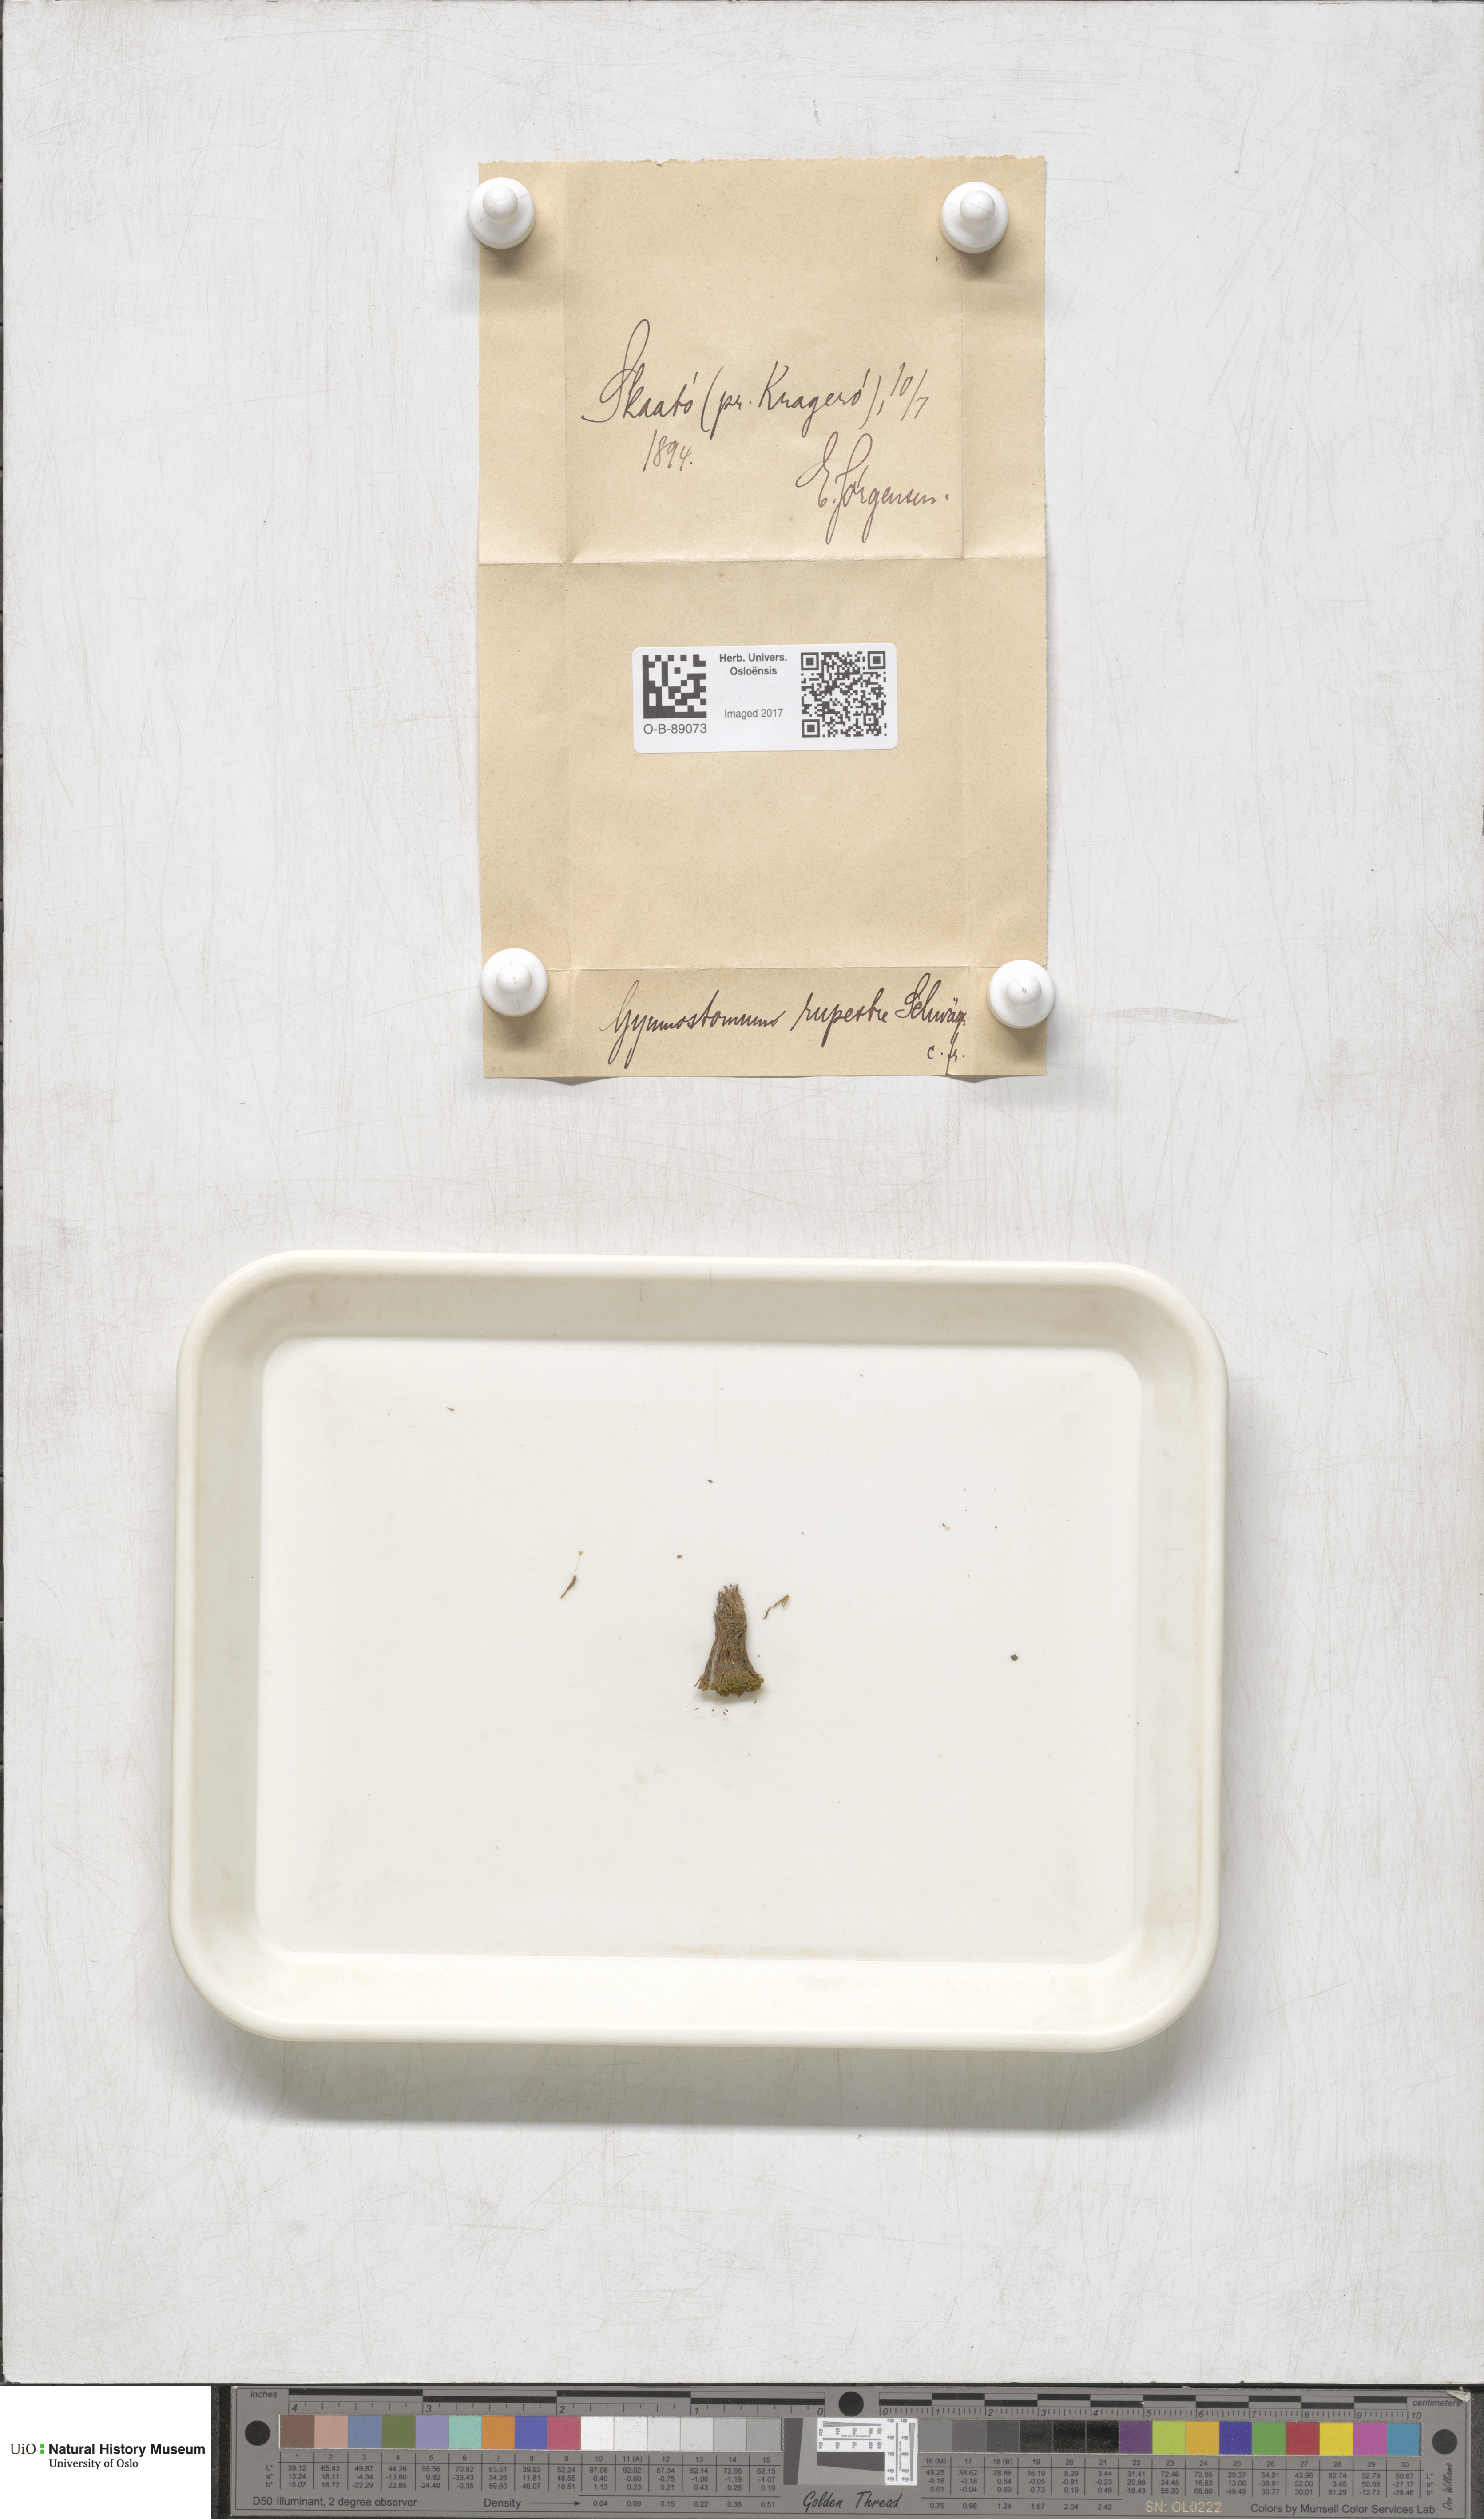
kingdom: Plantae
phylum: Bryophyta
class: Bryopsida
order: Pottiales
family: Pottiaceae
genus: Gymnostomum
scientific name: Gymnostomum aeruginosum
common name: Verdigris tufa-moss
